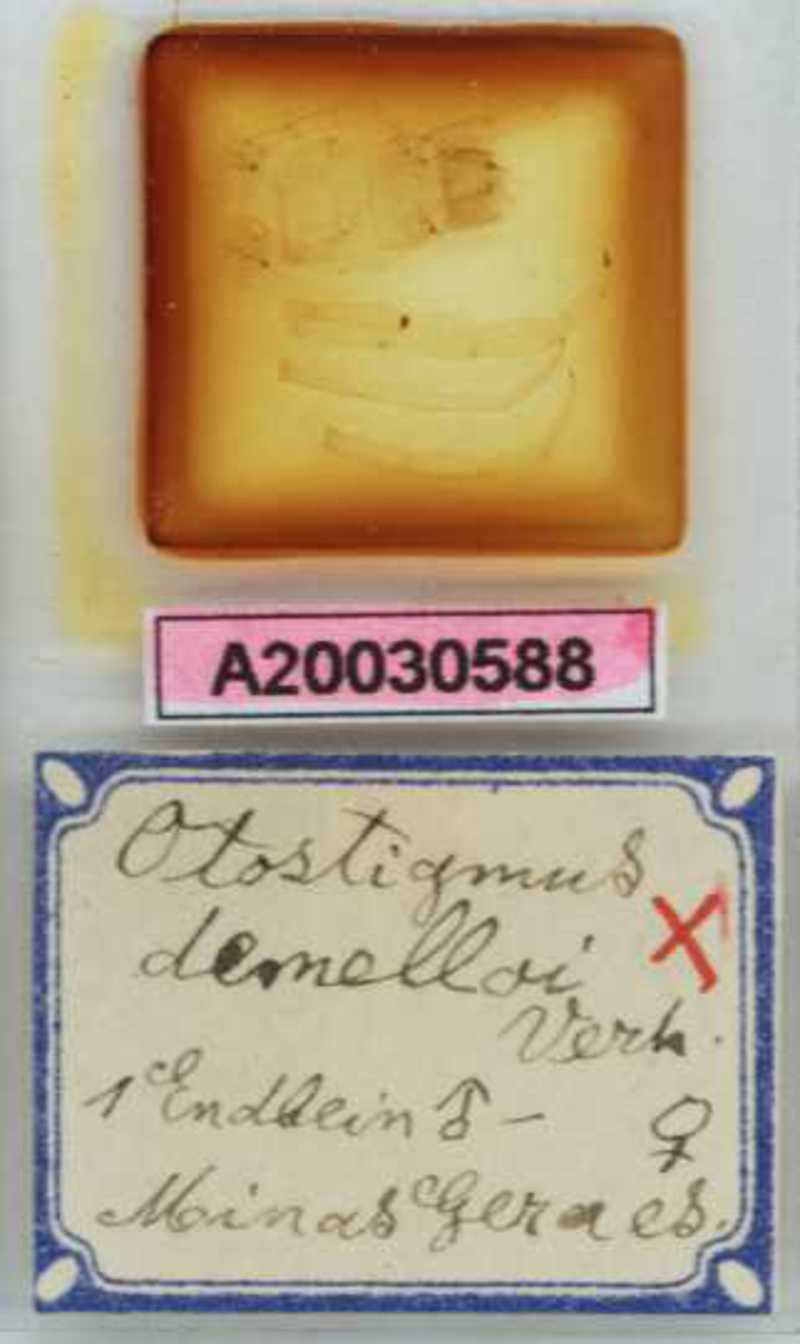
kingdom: Animalia
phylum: Arthropoda
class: Chilopoda
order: Scolopendromorpha
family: Scolopendridae
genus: Otostigmus
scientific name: Otostigmus demelloi
